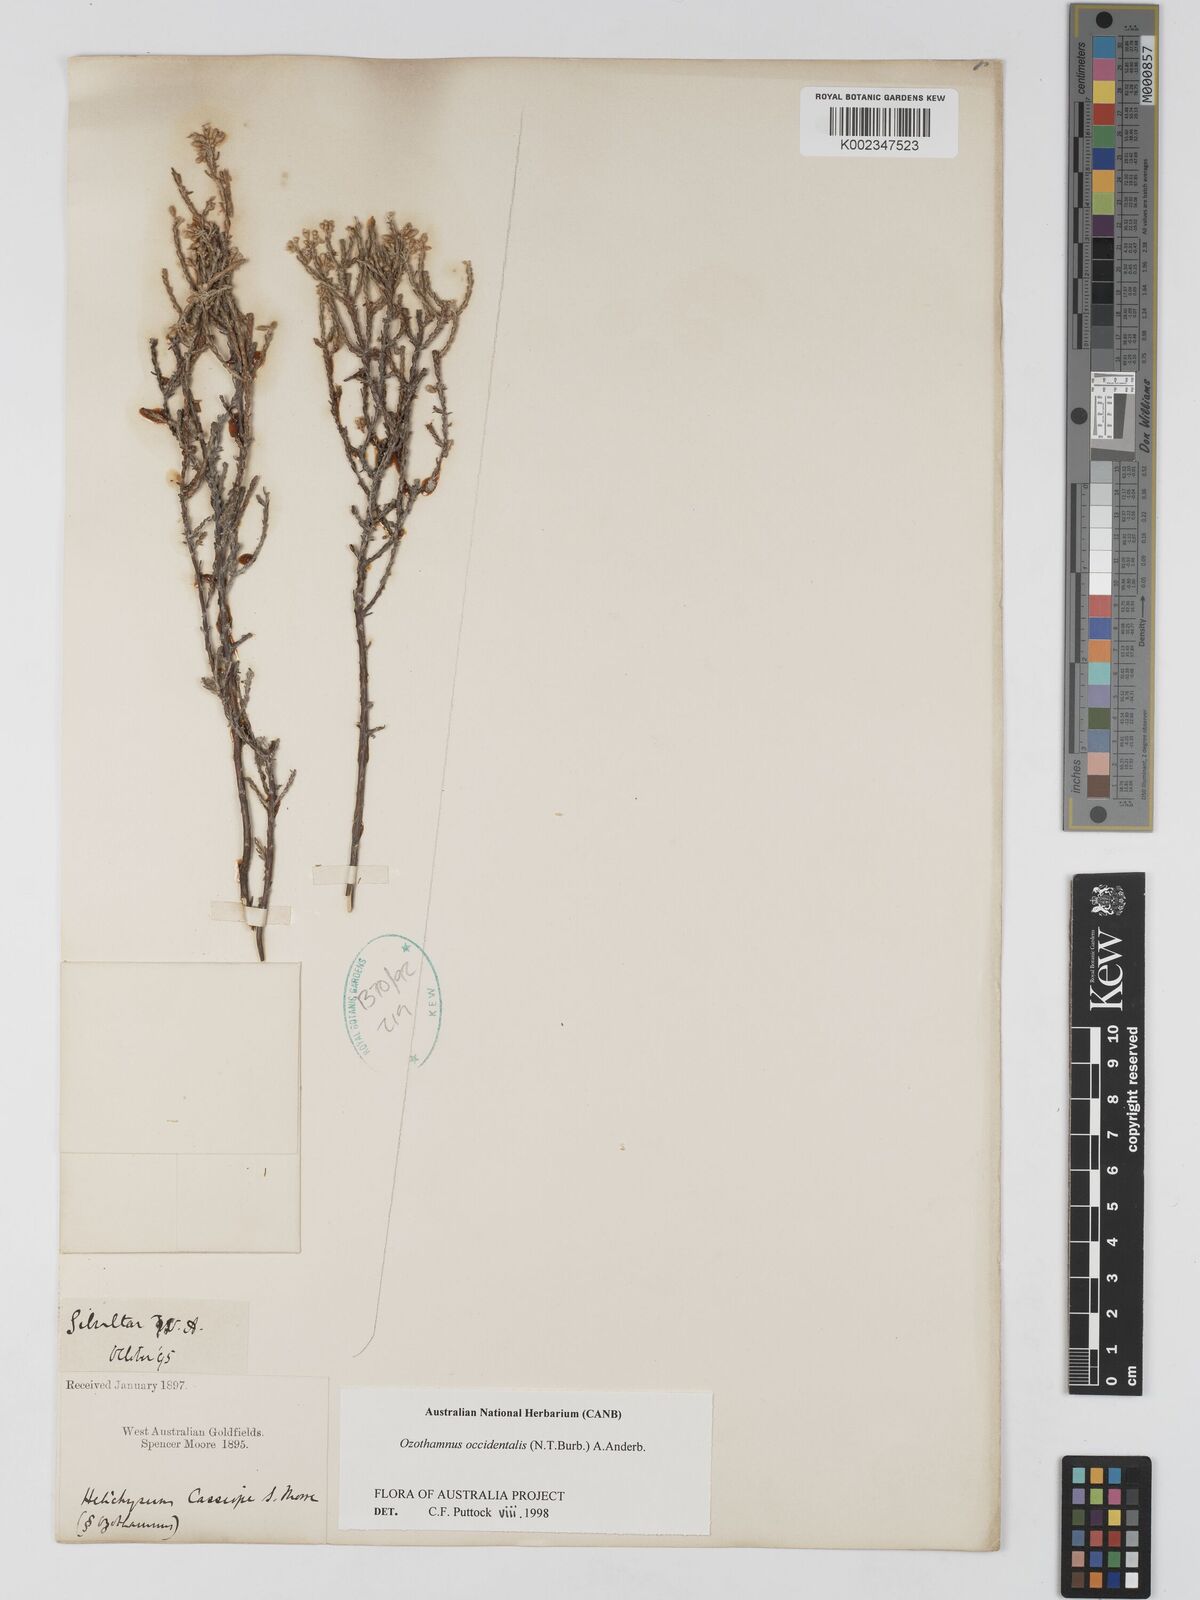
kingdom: Plantae
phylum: Tracheophyta
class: Magnoliopsida
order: Asterales
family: Asteraceae
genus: Ozothamnus
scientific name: Ozothamnus occidentalis
